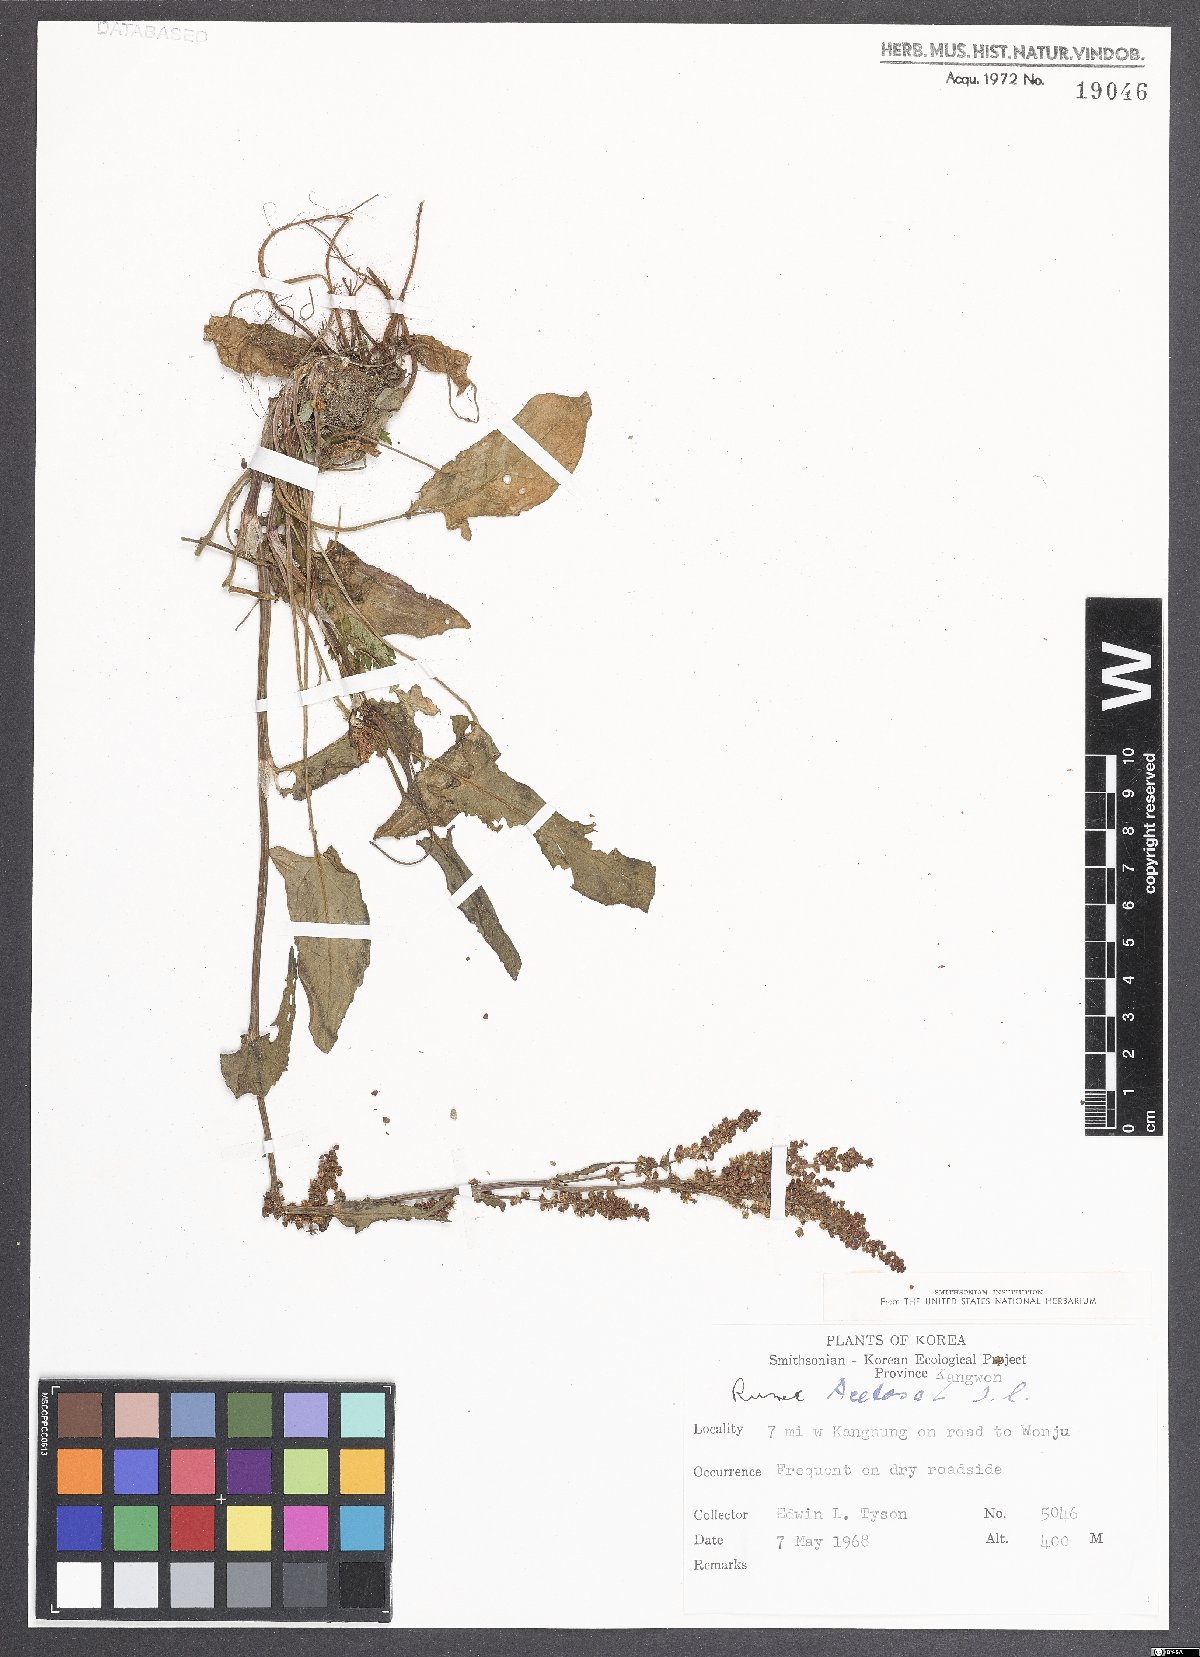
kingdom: Plantae
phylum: Tracheophyta
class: Magnoliopsida
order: Caryophyllales
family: Polygonaceae
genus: Rumex
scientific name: Rumex acetosa
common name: Garden sorrel
